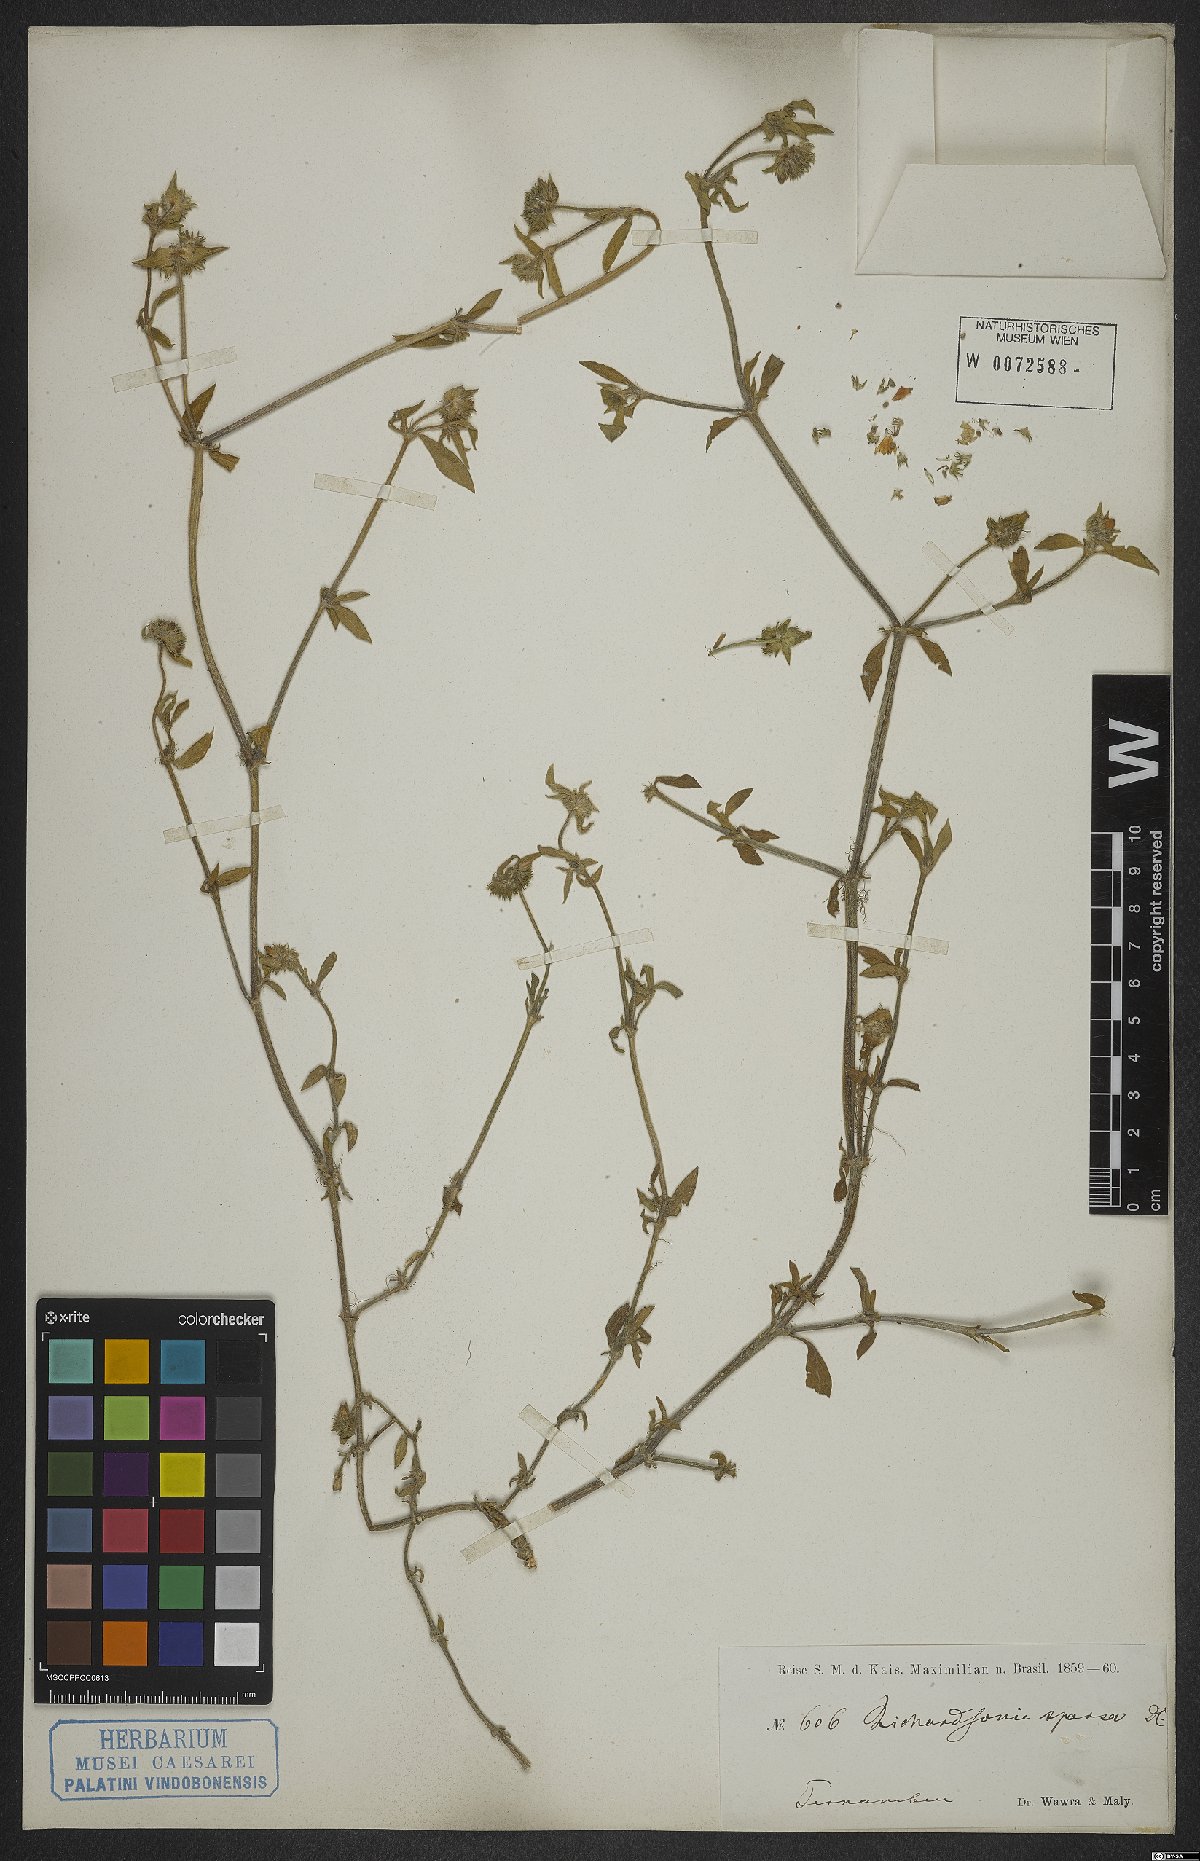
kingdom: Plantae
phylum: Tracheophyta
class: Magnoliopsida
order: Gentianales
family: Rubiaceae
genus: Richardia
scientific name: Richardia grandiflora
